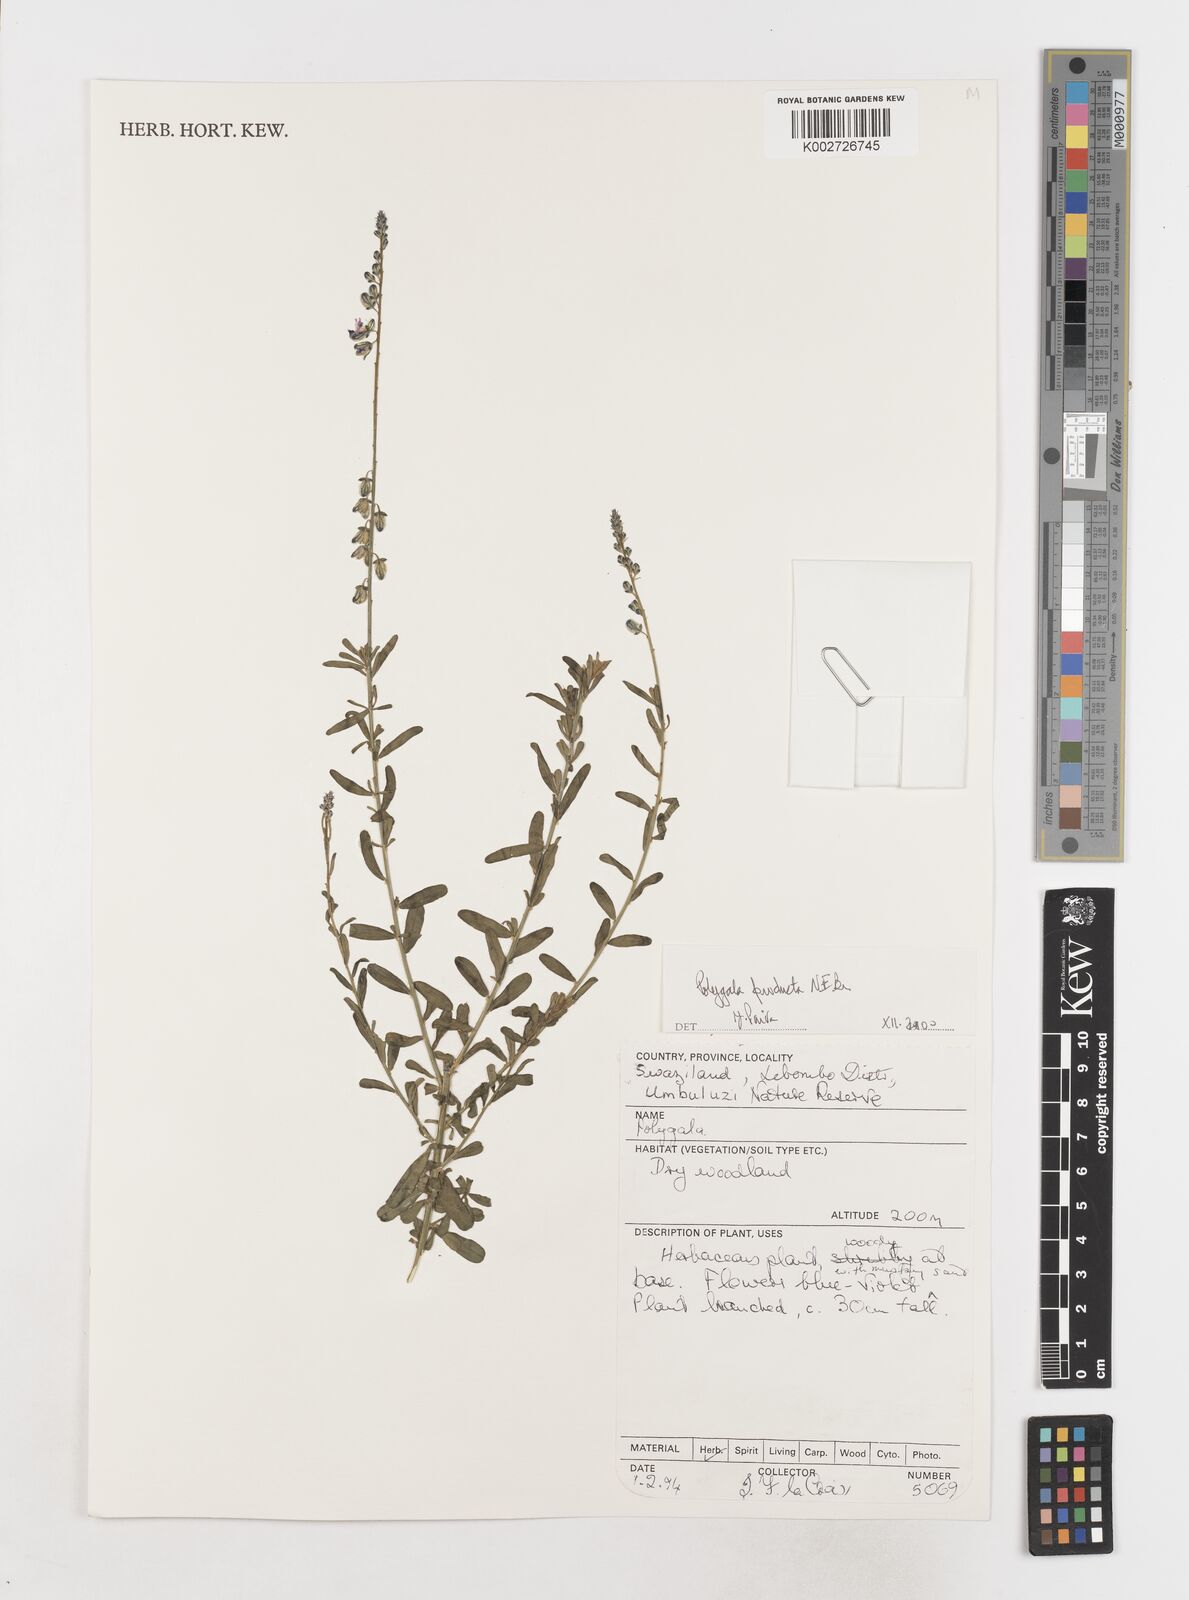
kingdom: Plantae
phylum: Tracheophyta
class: Magnoliopsida
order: Fabales
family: Polygalaceae
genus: Polygala
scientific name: Polygala producta
